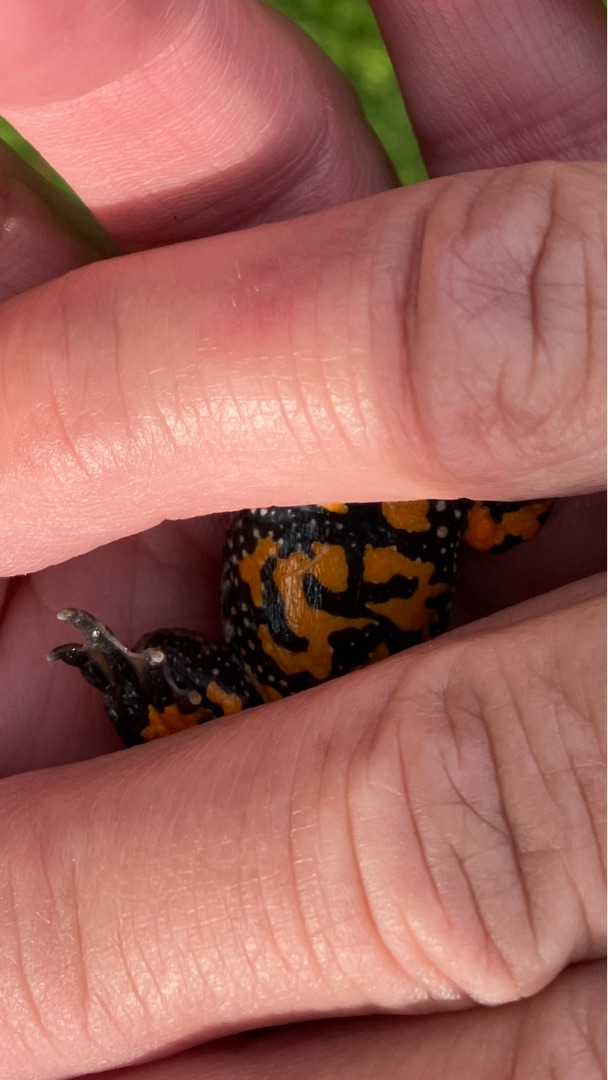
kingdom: Animalia
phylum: Chordata
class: Amphibia
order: Anura
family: Bombinatoridae
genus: Bombina
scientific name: Bombina bombina
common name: Klokkefrø
